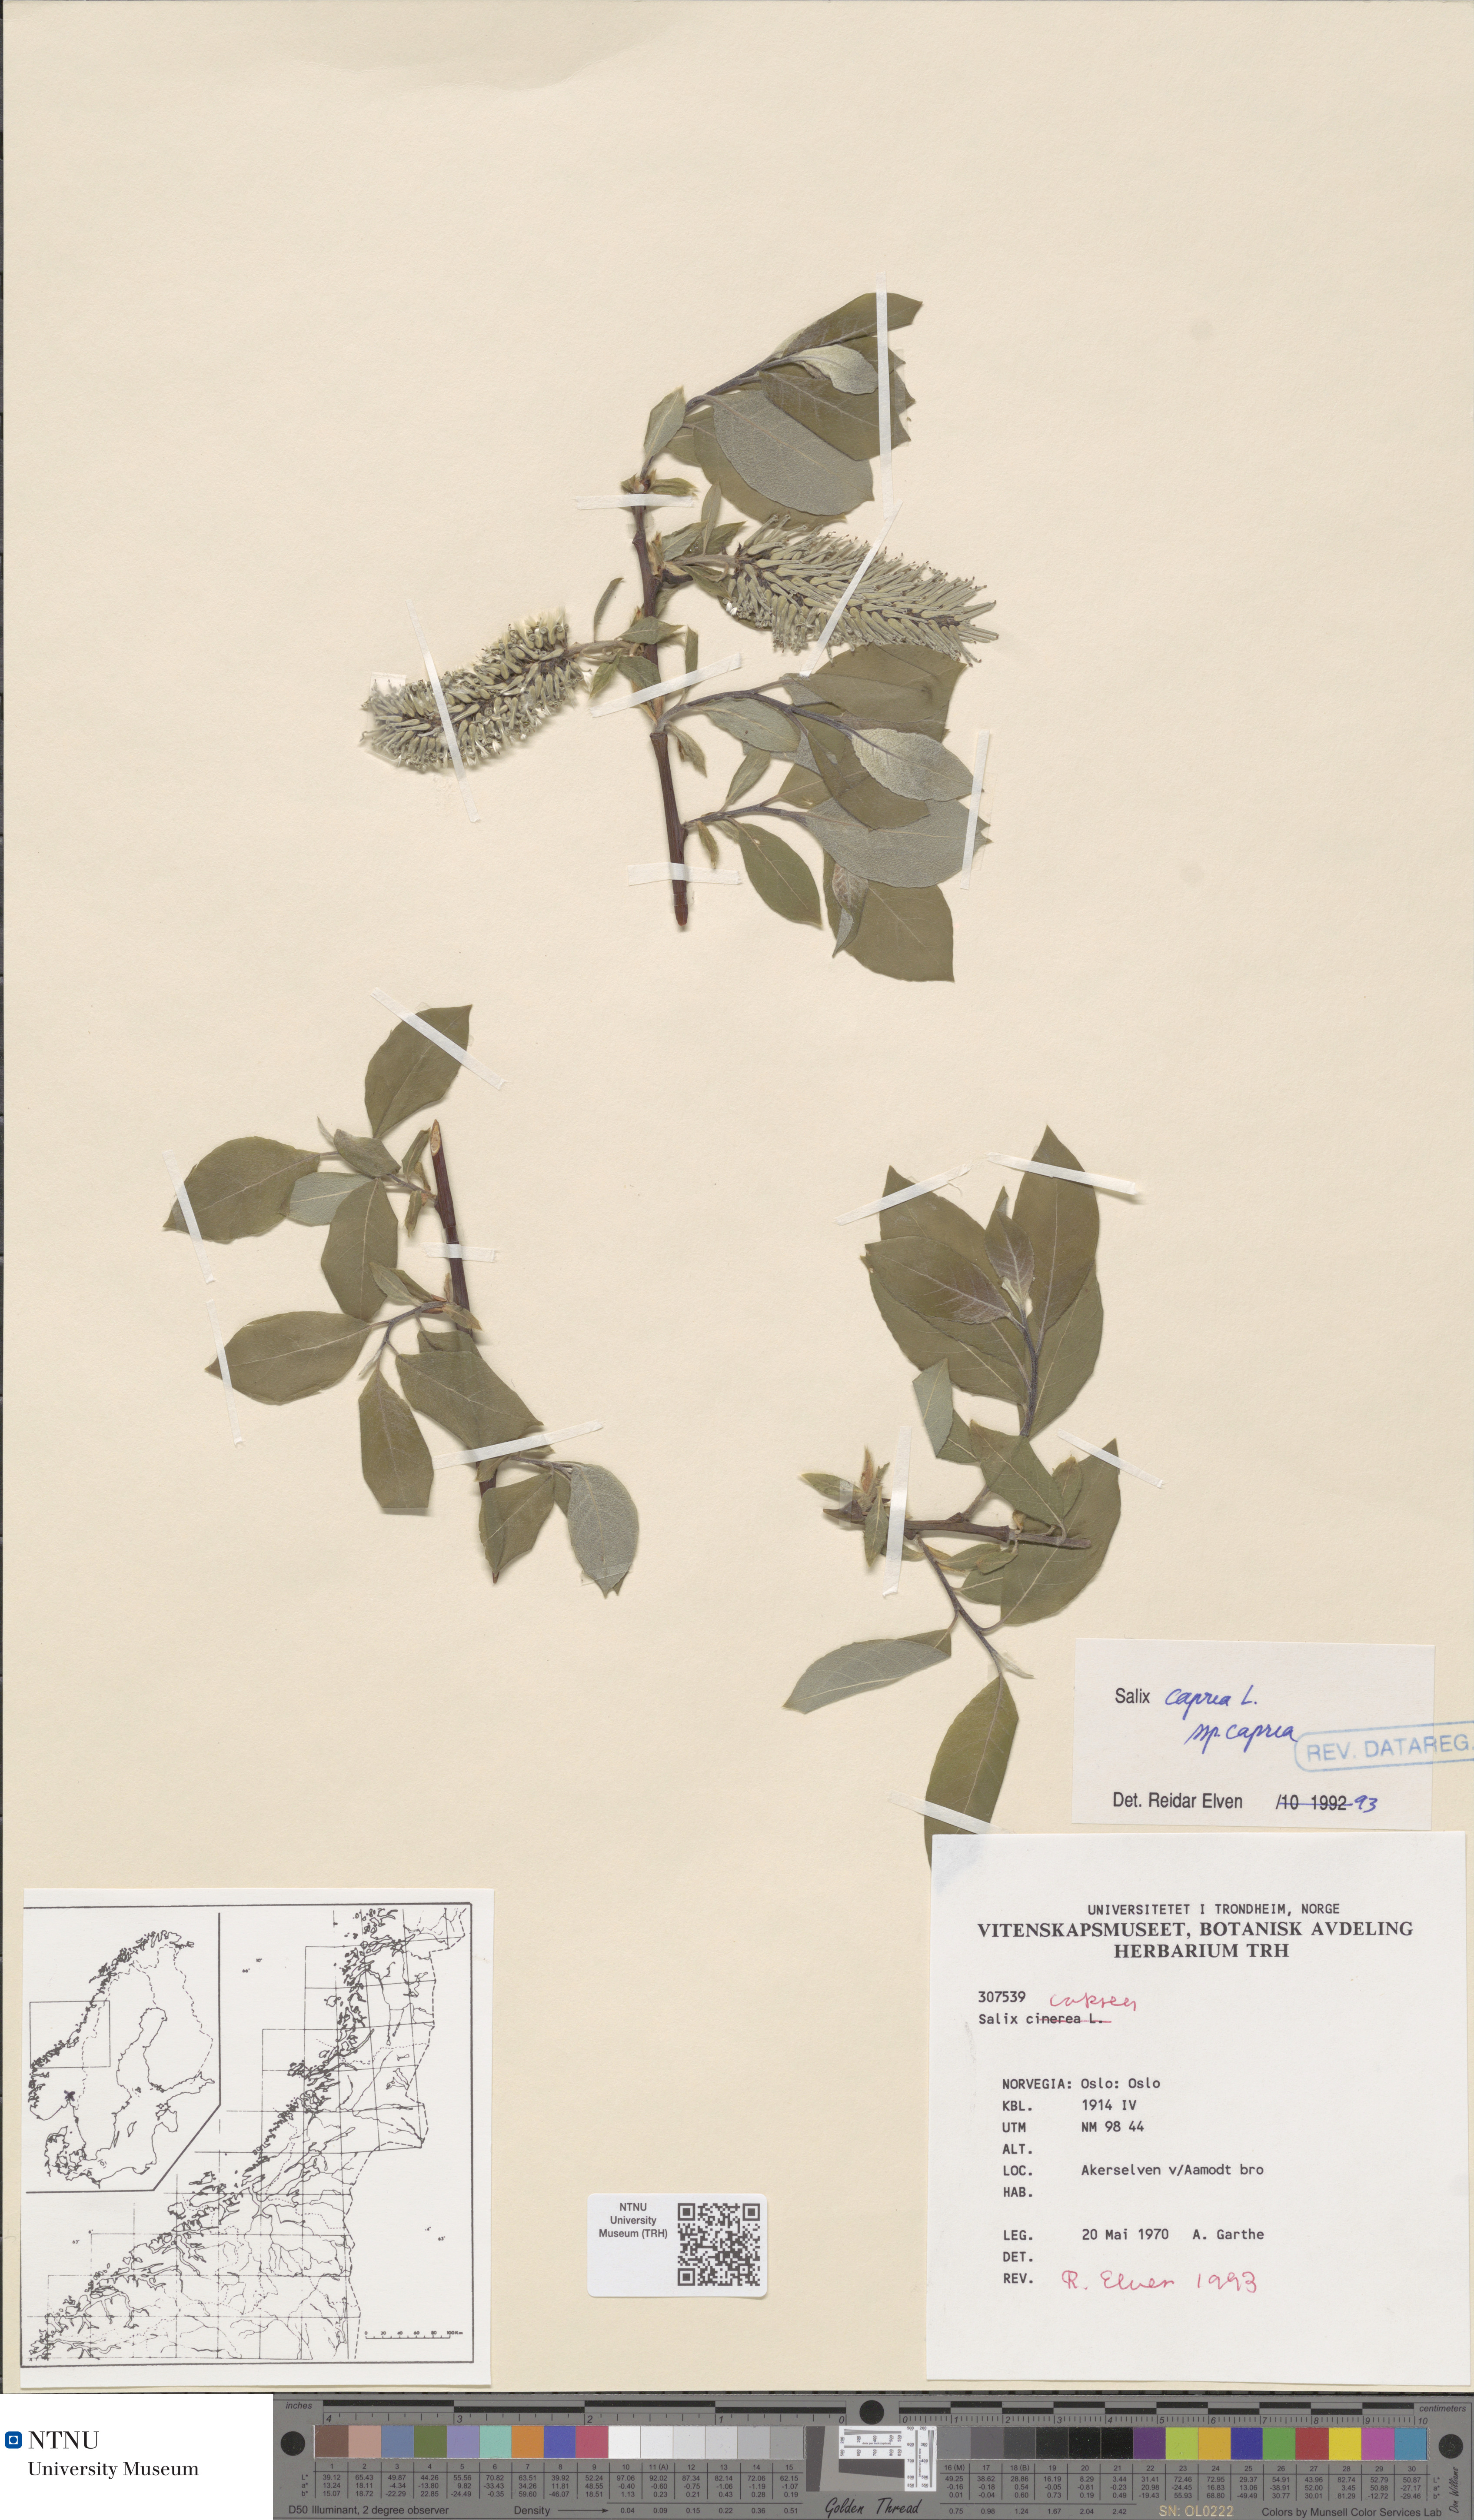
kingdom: Plantae
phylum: Tracheophyta
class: Magnoliopsida
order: Malpighiales
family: Salicaceae
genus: Salix
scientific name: Salix caprea
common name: Goat willow
